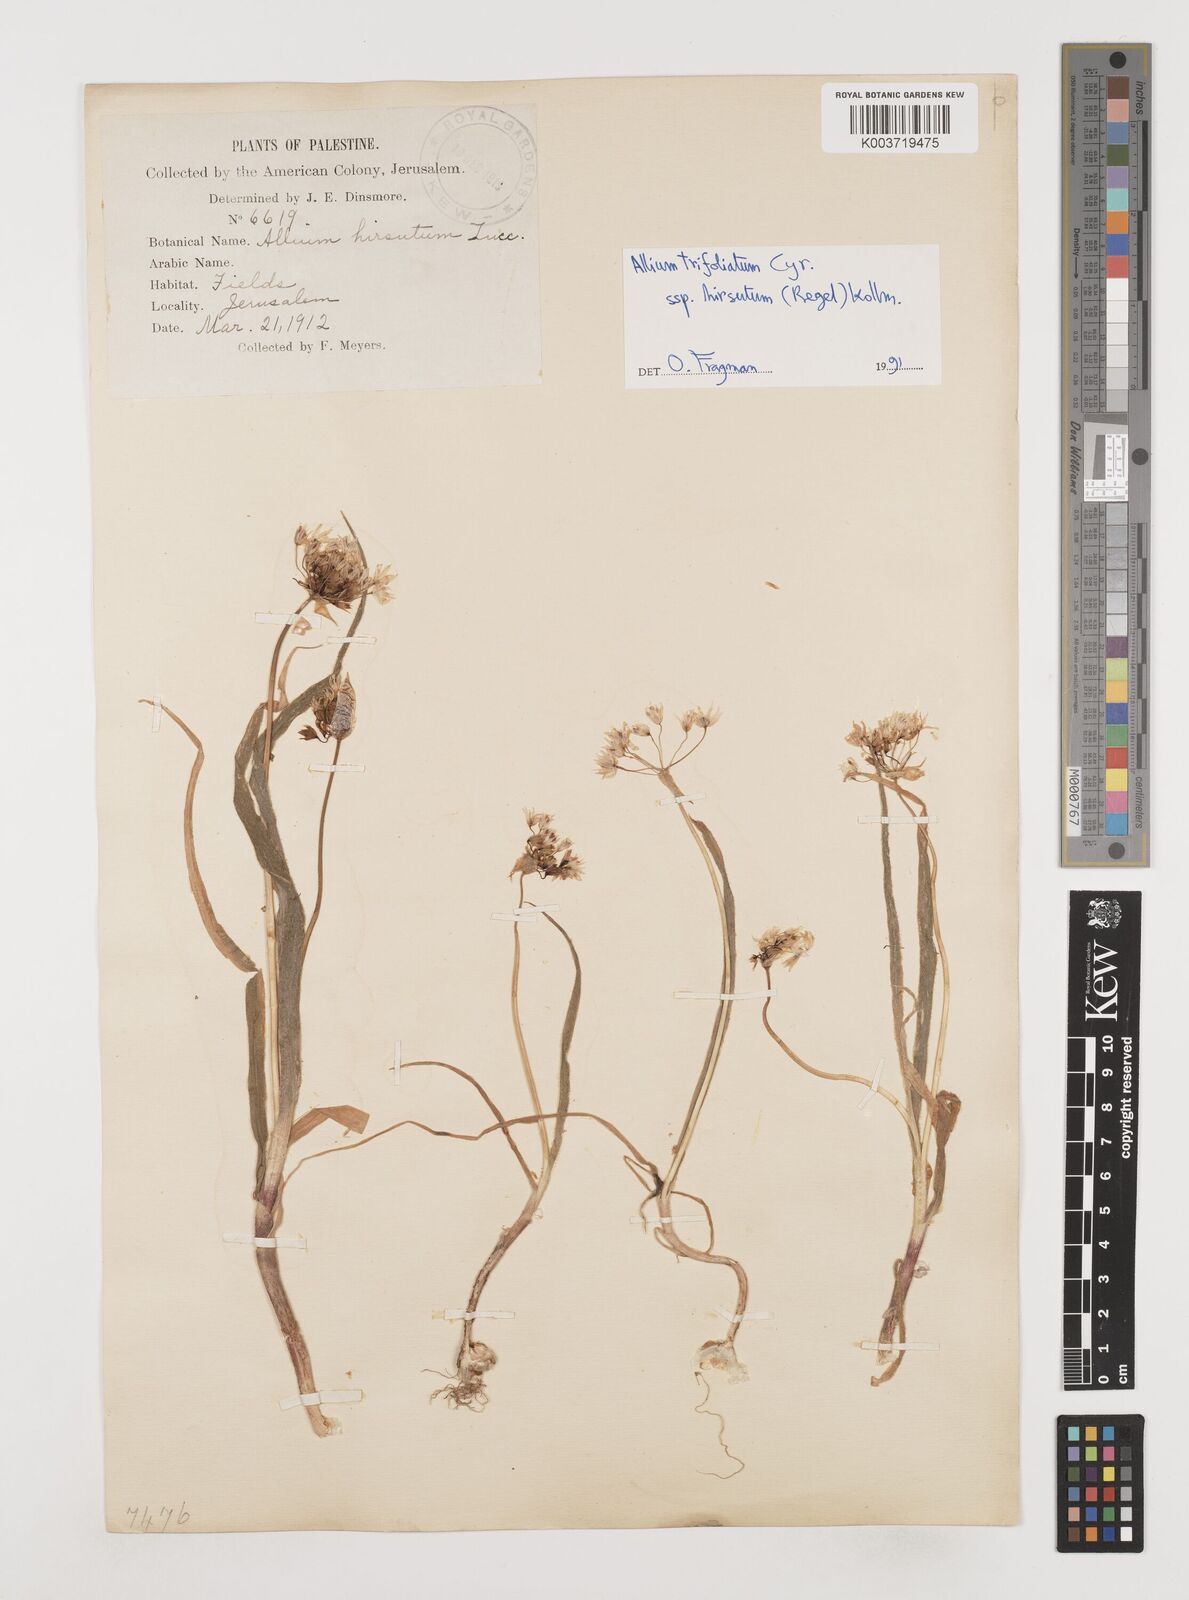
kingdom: Plantae
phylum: Tracheophyta
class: Liliopsida
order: Asparagales
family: Amaryllidaceae
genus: Allium
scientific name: Allium
